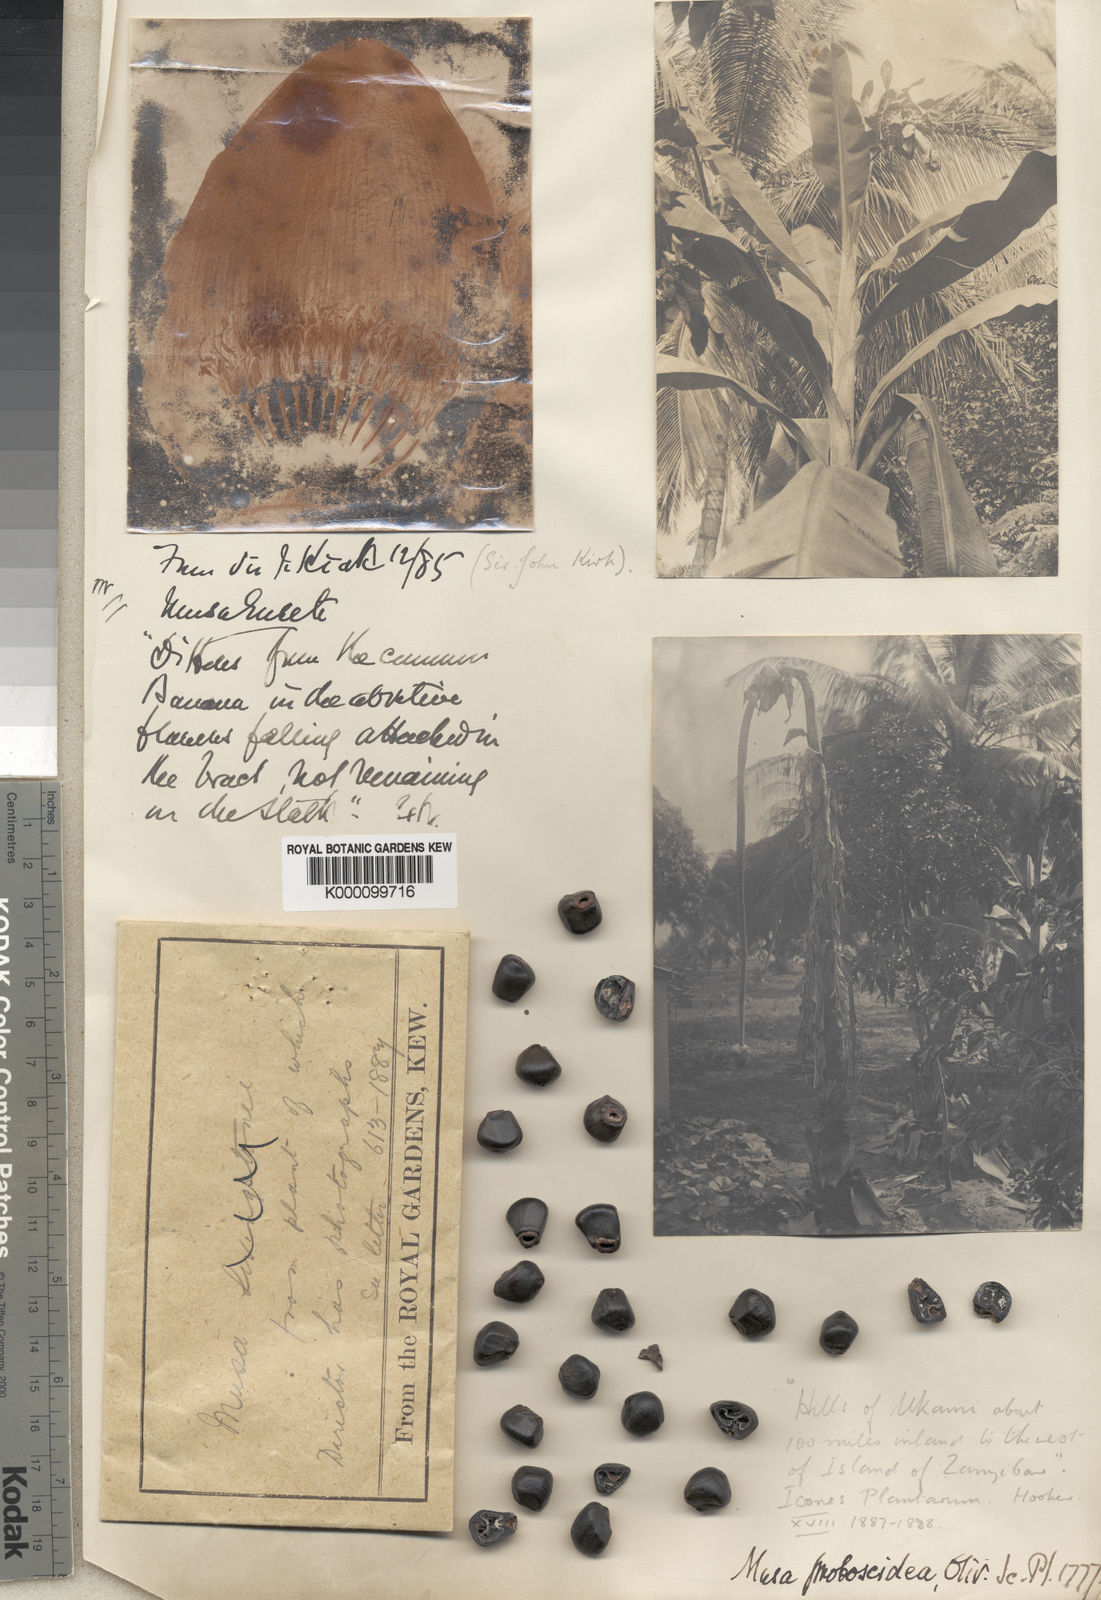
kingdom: Plantae
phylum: Tracheophyta
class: Liliopsida
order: Zingiberales
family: Musaceae
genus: Ensete
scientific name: Ensete ventricosum
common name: Abyssinian banana
